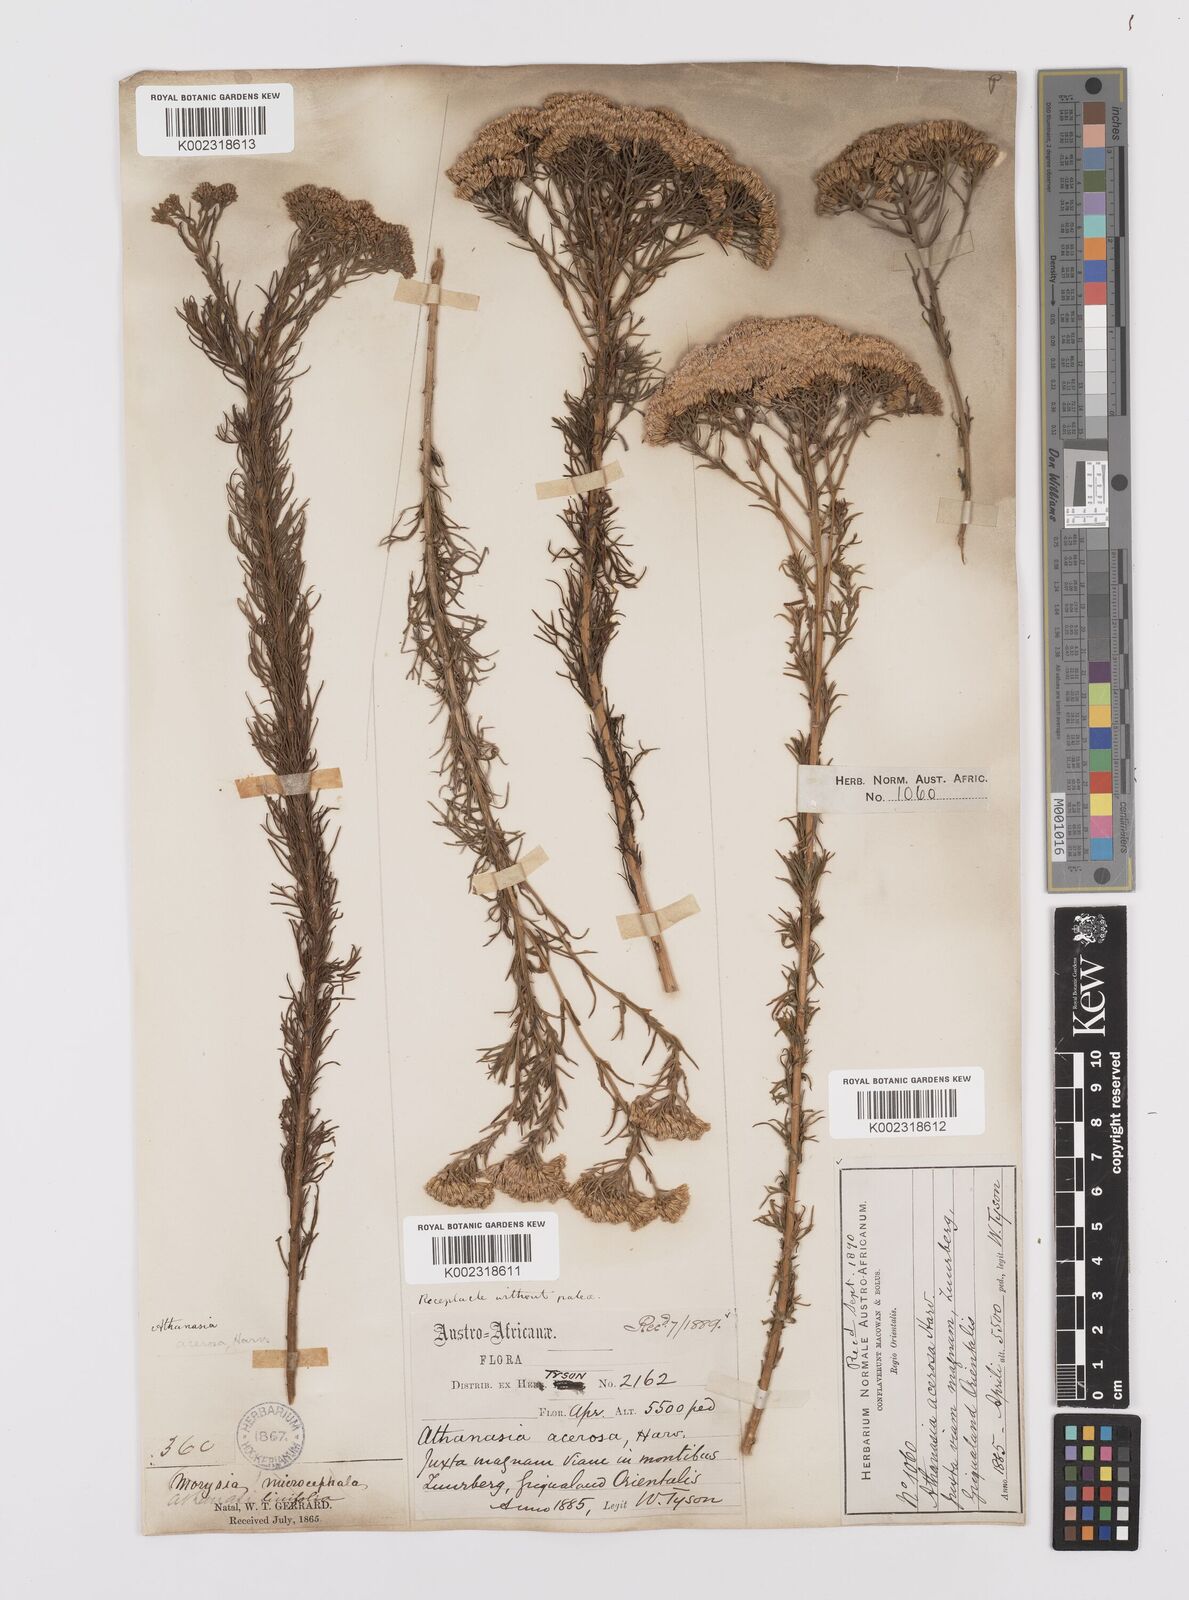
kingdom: Plantae
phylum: Tracheophyta
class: Magnoliopsida
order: Asterales
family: Asteraceae
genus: Phymaspermum
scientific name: Phymaspermum acerosum
